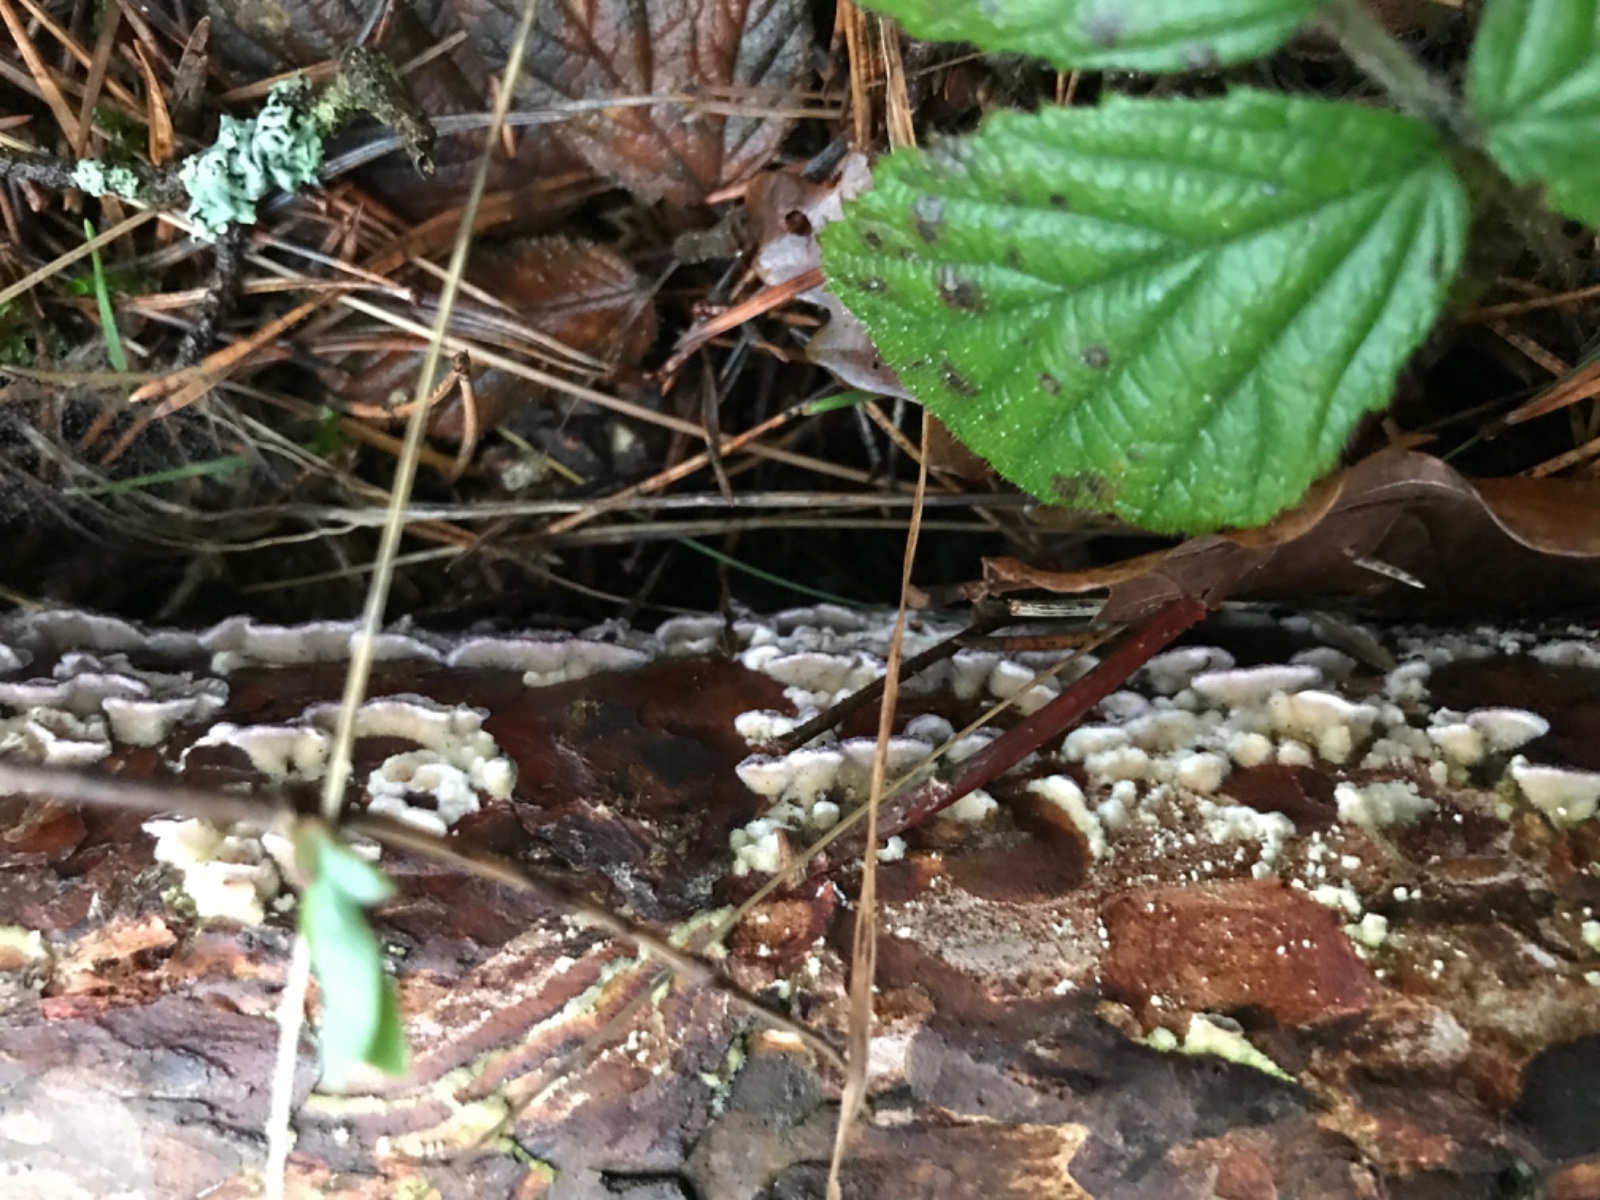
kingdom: Fungi
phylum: Basidiomycota
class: Agaricomycetes
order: Hymenochaetales
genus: Trichaptum
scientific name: Trichaptum fuscoviolaceum
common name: tandet violporesvamp
